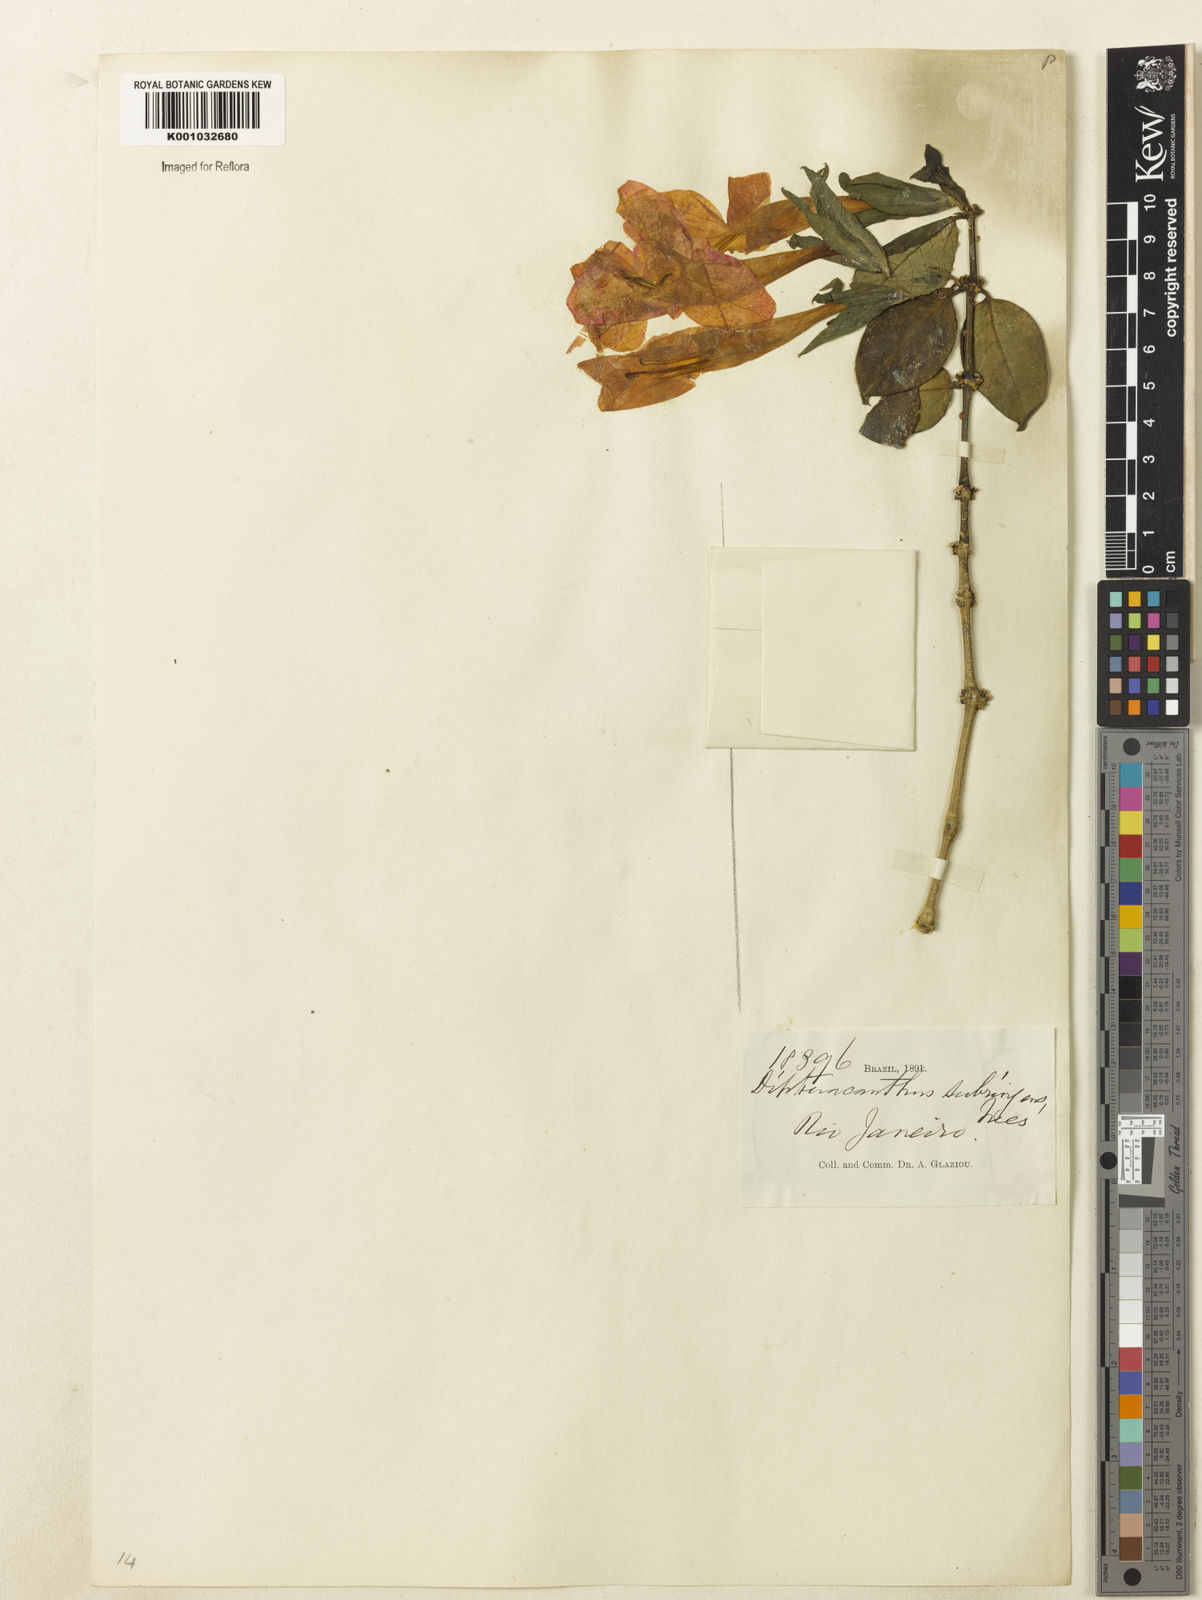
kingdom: Plantae
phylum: Tracheophyta
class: Magnoliopsida
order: Lamiales
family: Acanthaceae
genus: Ruellia
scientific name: Ruellia subringens
